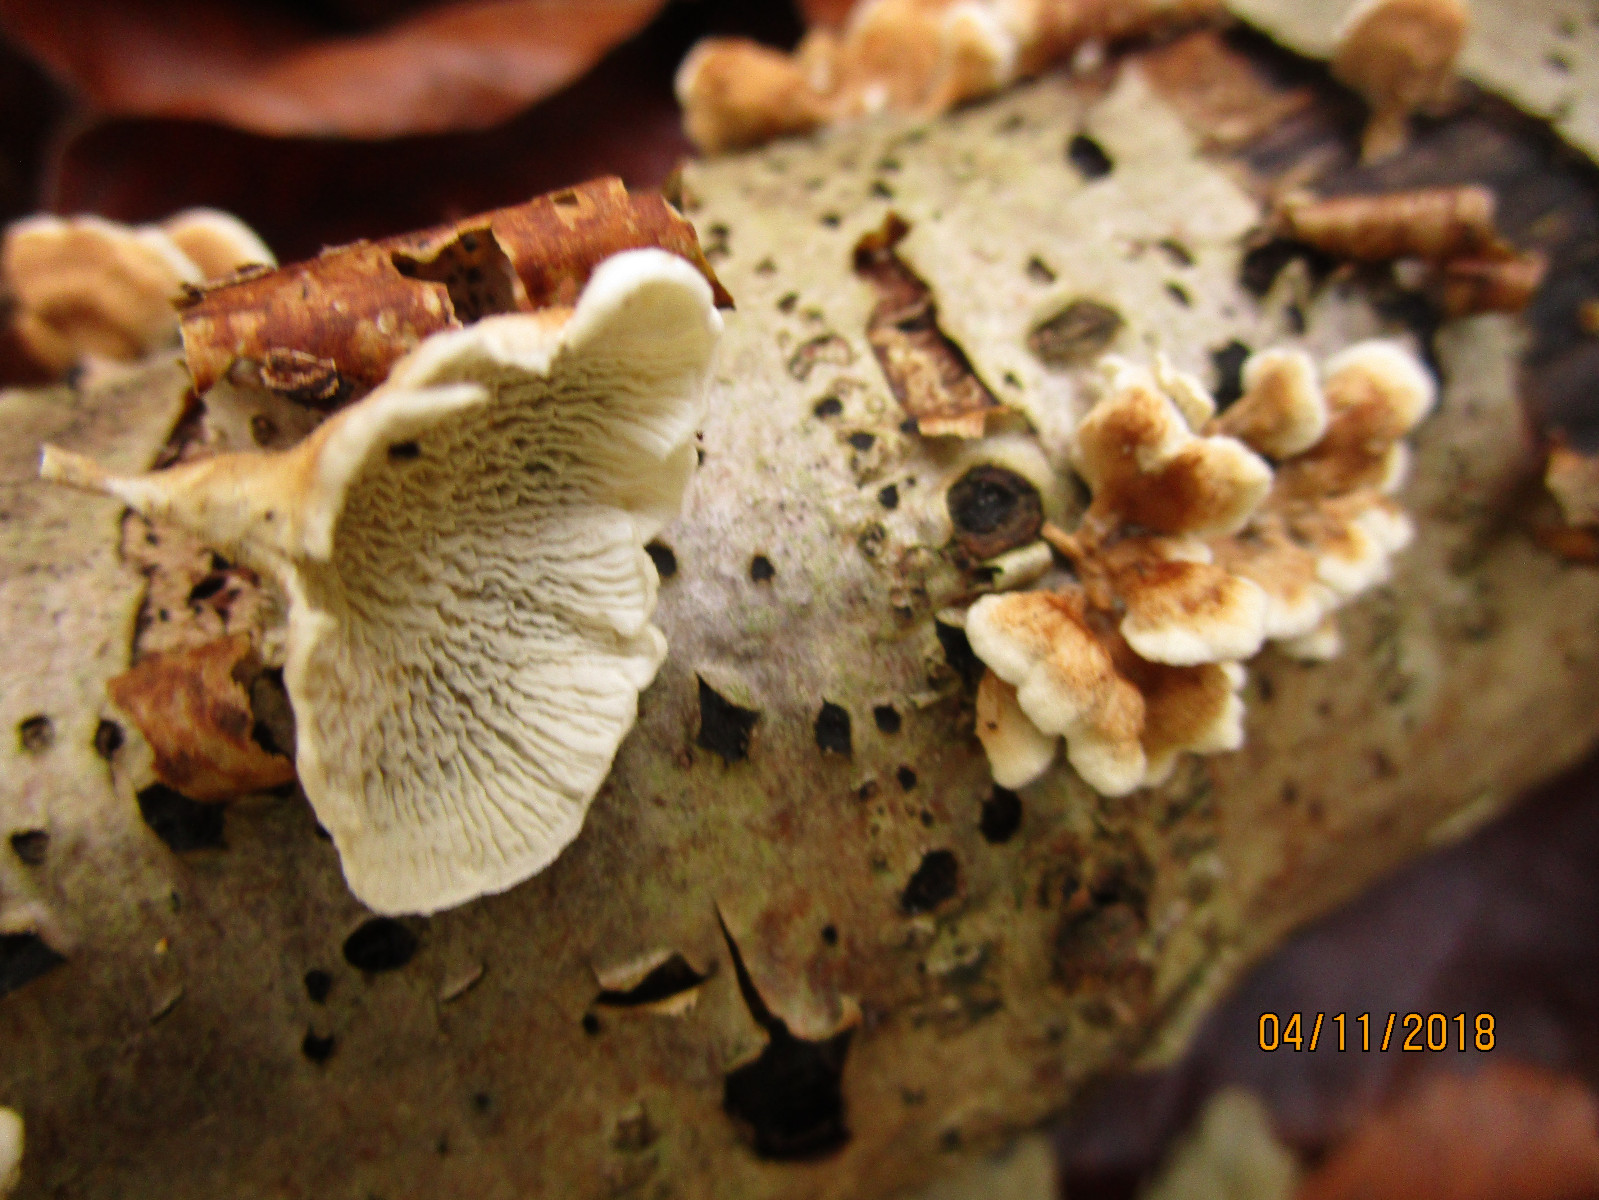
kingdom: Fungi
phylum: Basidiomycota
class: Agaricomycetes
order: Amylocorticiales
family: Amylocorticiaceae
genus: Plicaturopsis
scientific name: Plicaturopsis crispa
